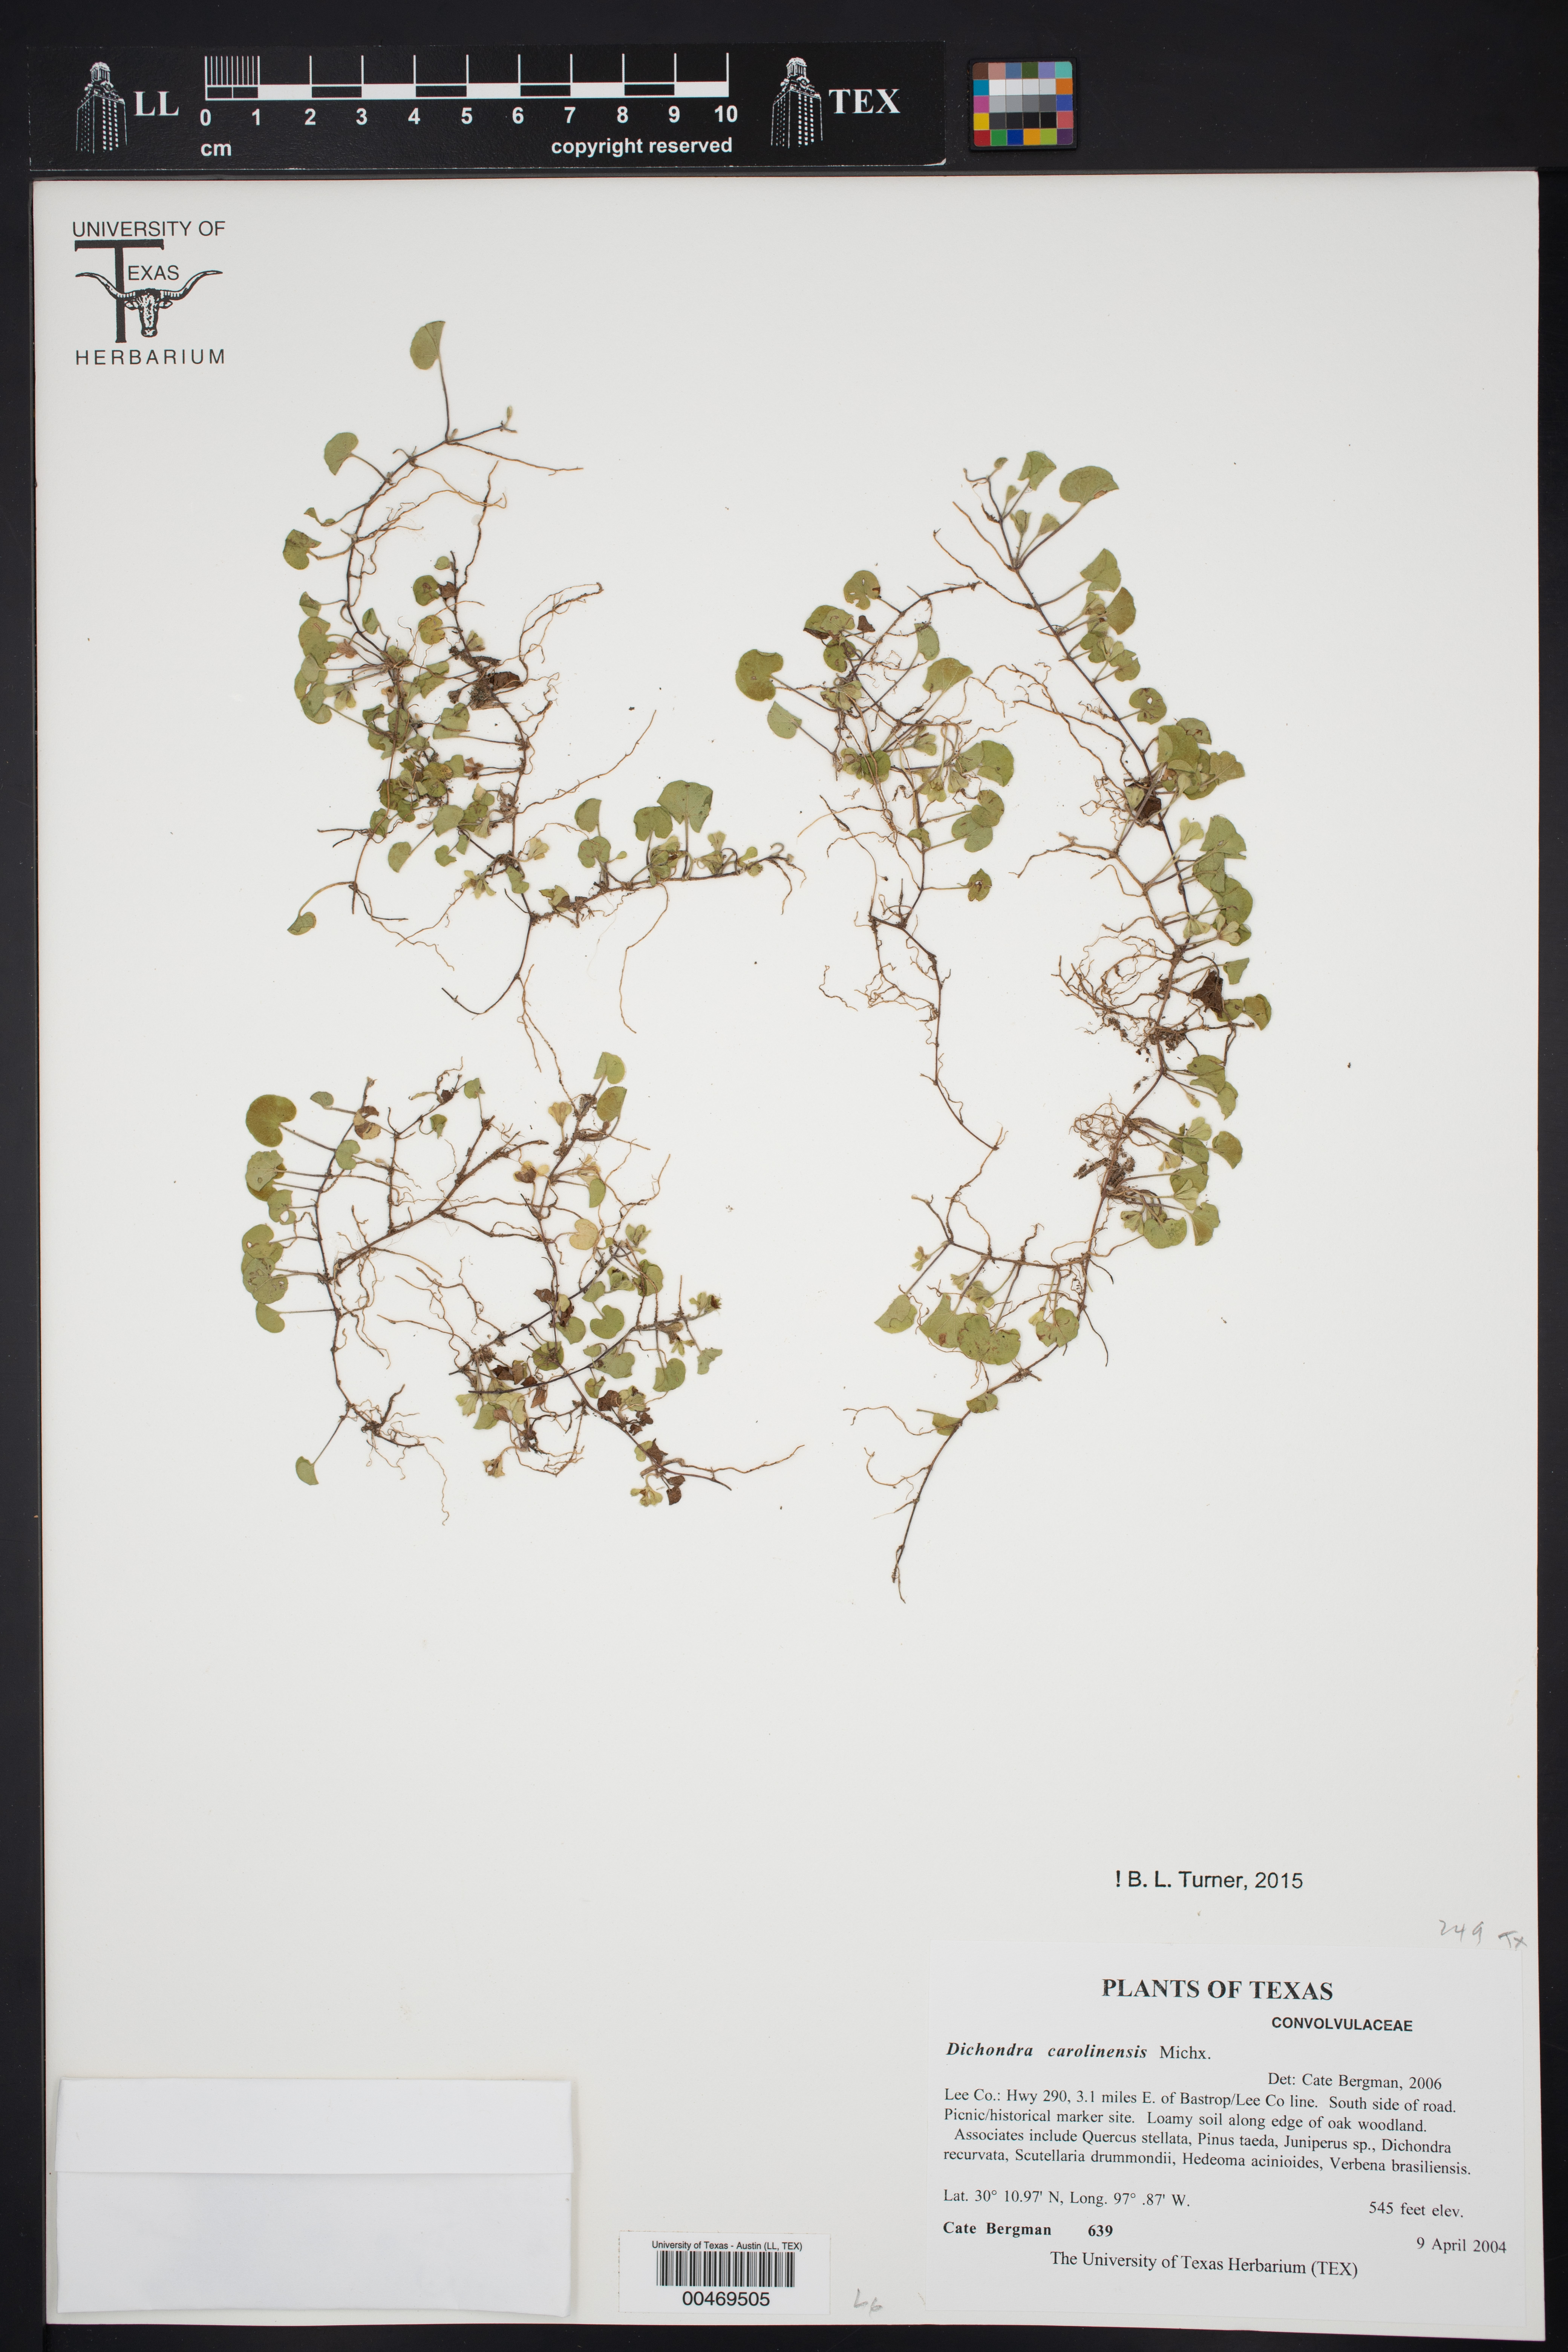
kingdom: Plantae
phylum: Tracheophyta
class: Magnoliopsida
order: Solanales
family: Convolvulaceae
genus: Dichondra
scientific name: Dichondra carolinensis
